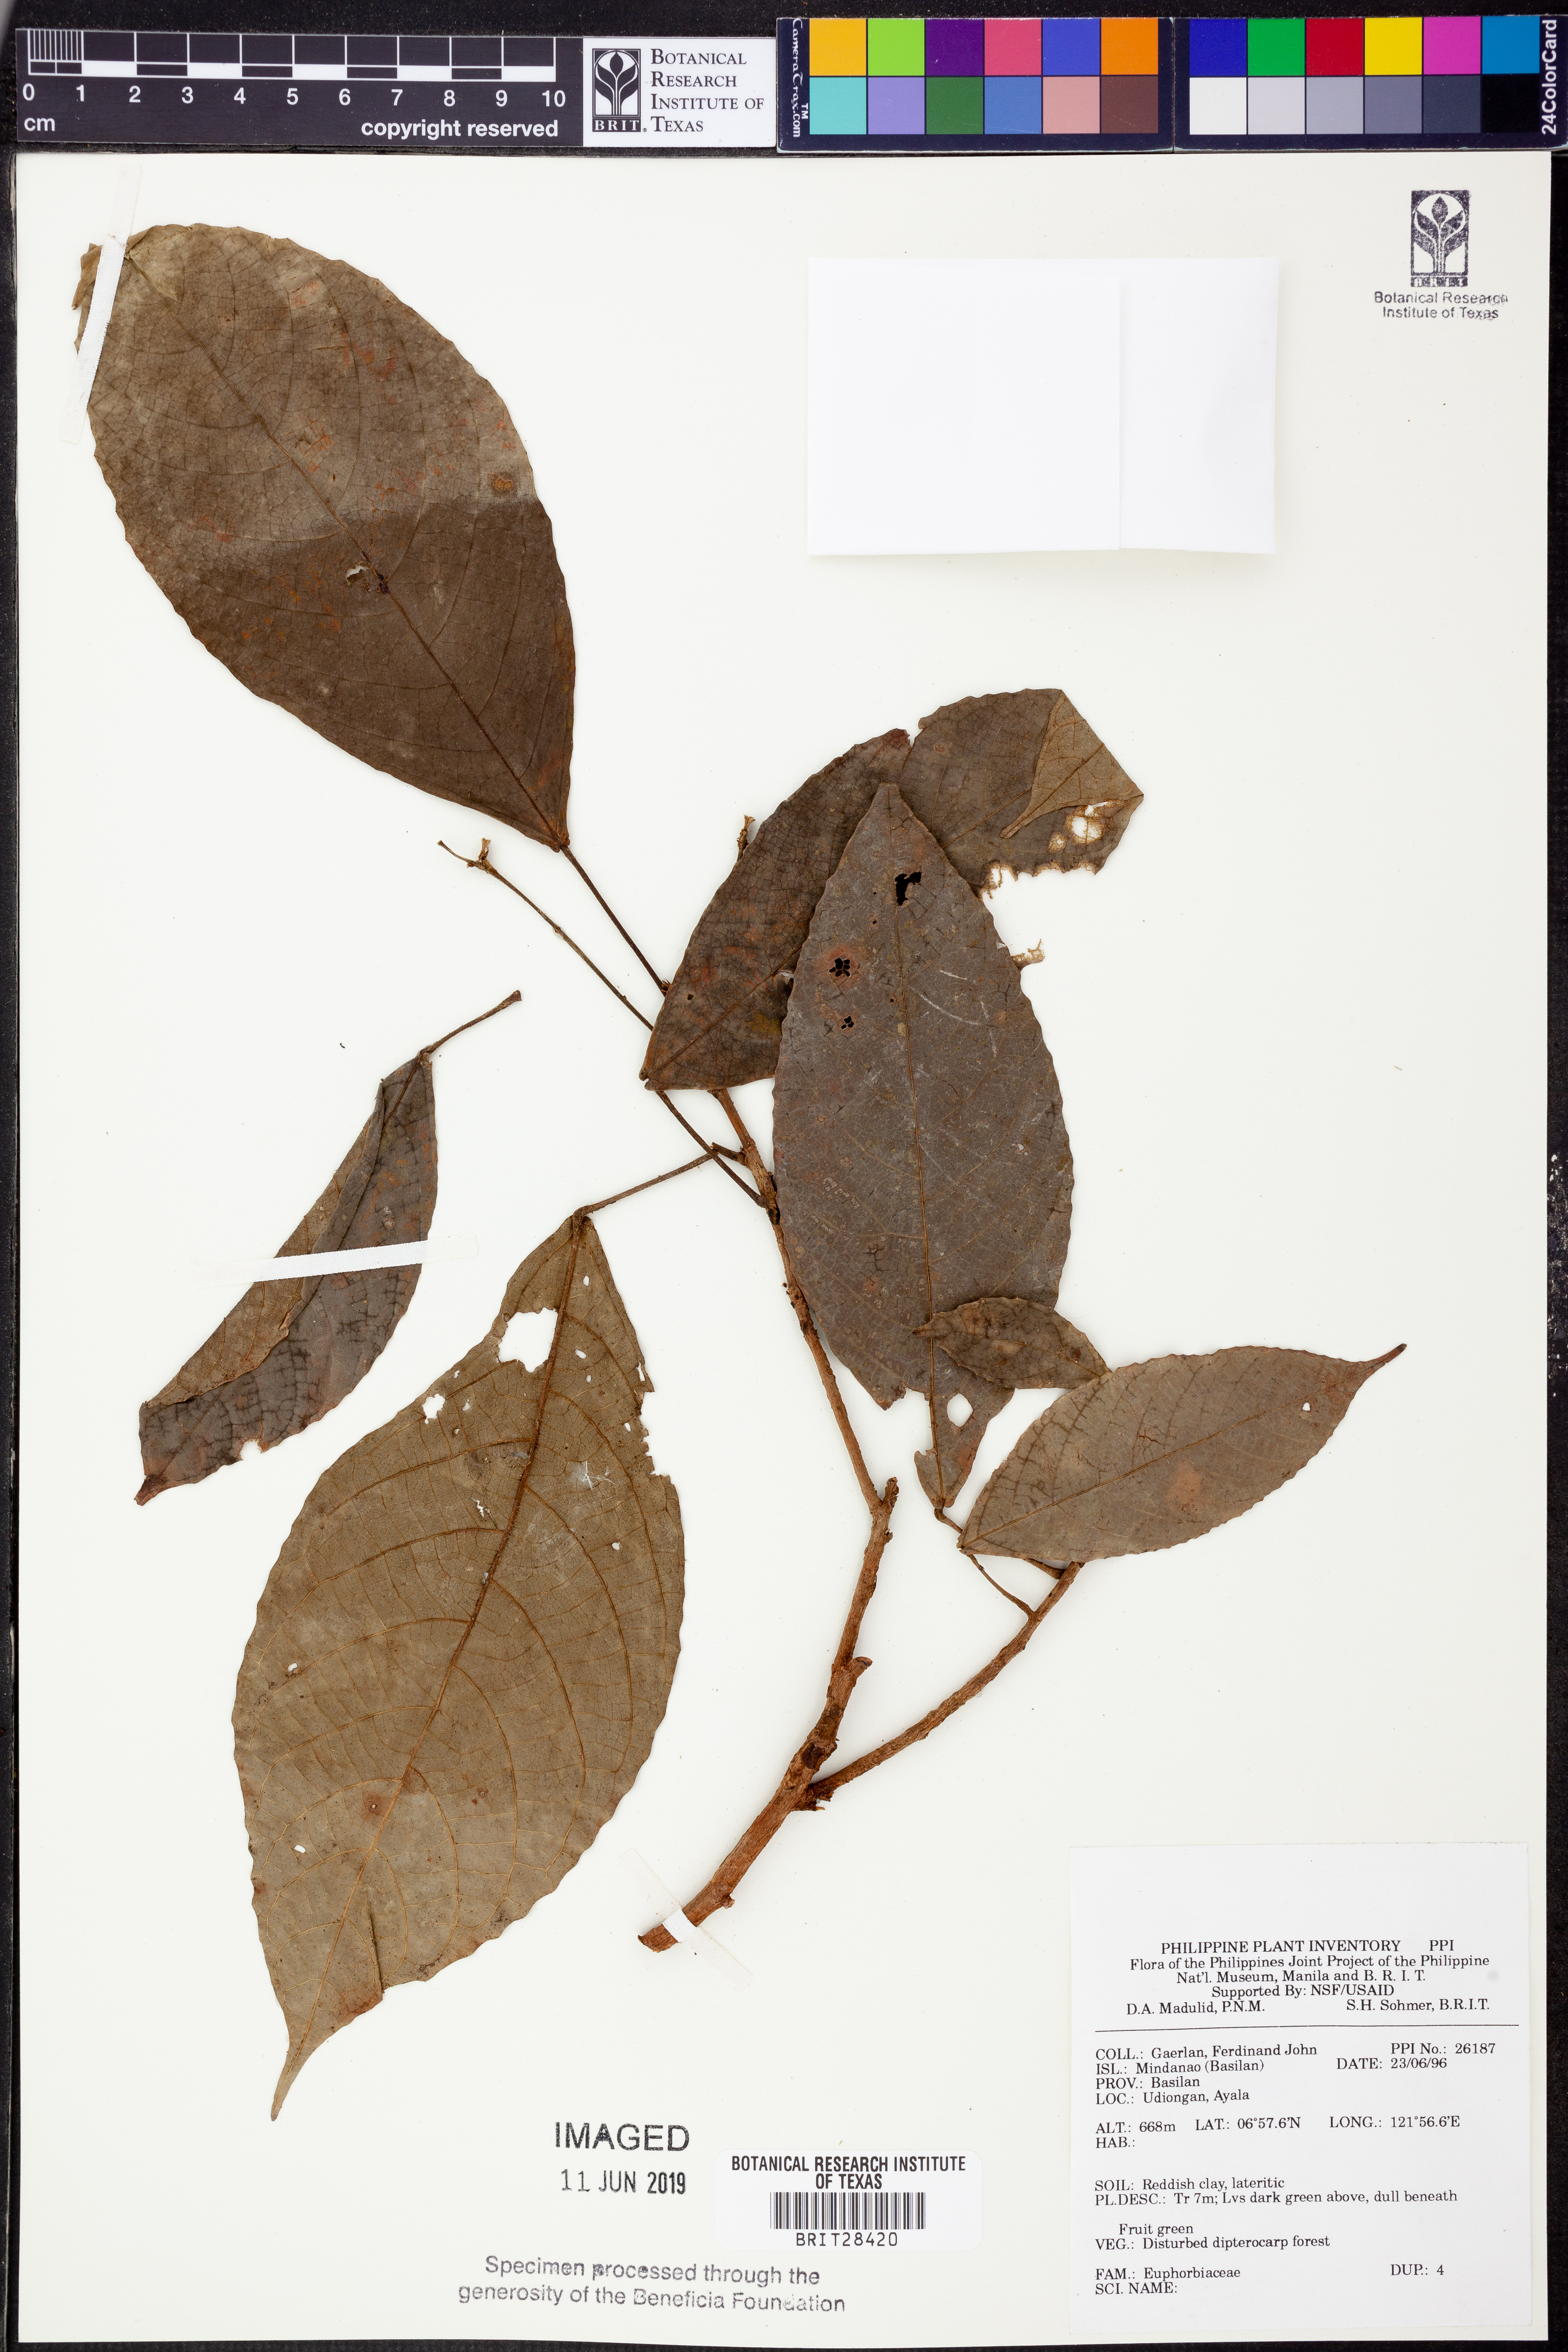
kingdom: Plantae
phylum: Tracheophyta
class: Magnoliopsida
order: Malpighiales
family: Euphorbiaceae
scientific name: Euphorbiaceae
